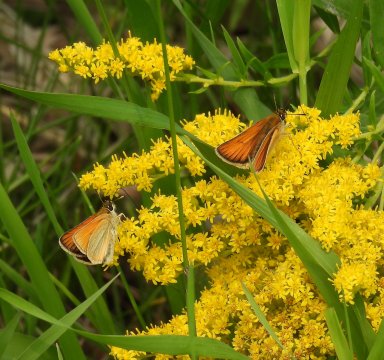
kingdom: Animalia
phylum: Arthropoda
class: Insecta
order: Lepidoptera
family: Hesperiidae
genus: Thymelicus
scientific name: Thymelicus lineola
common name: European Skipper
